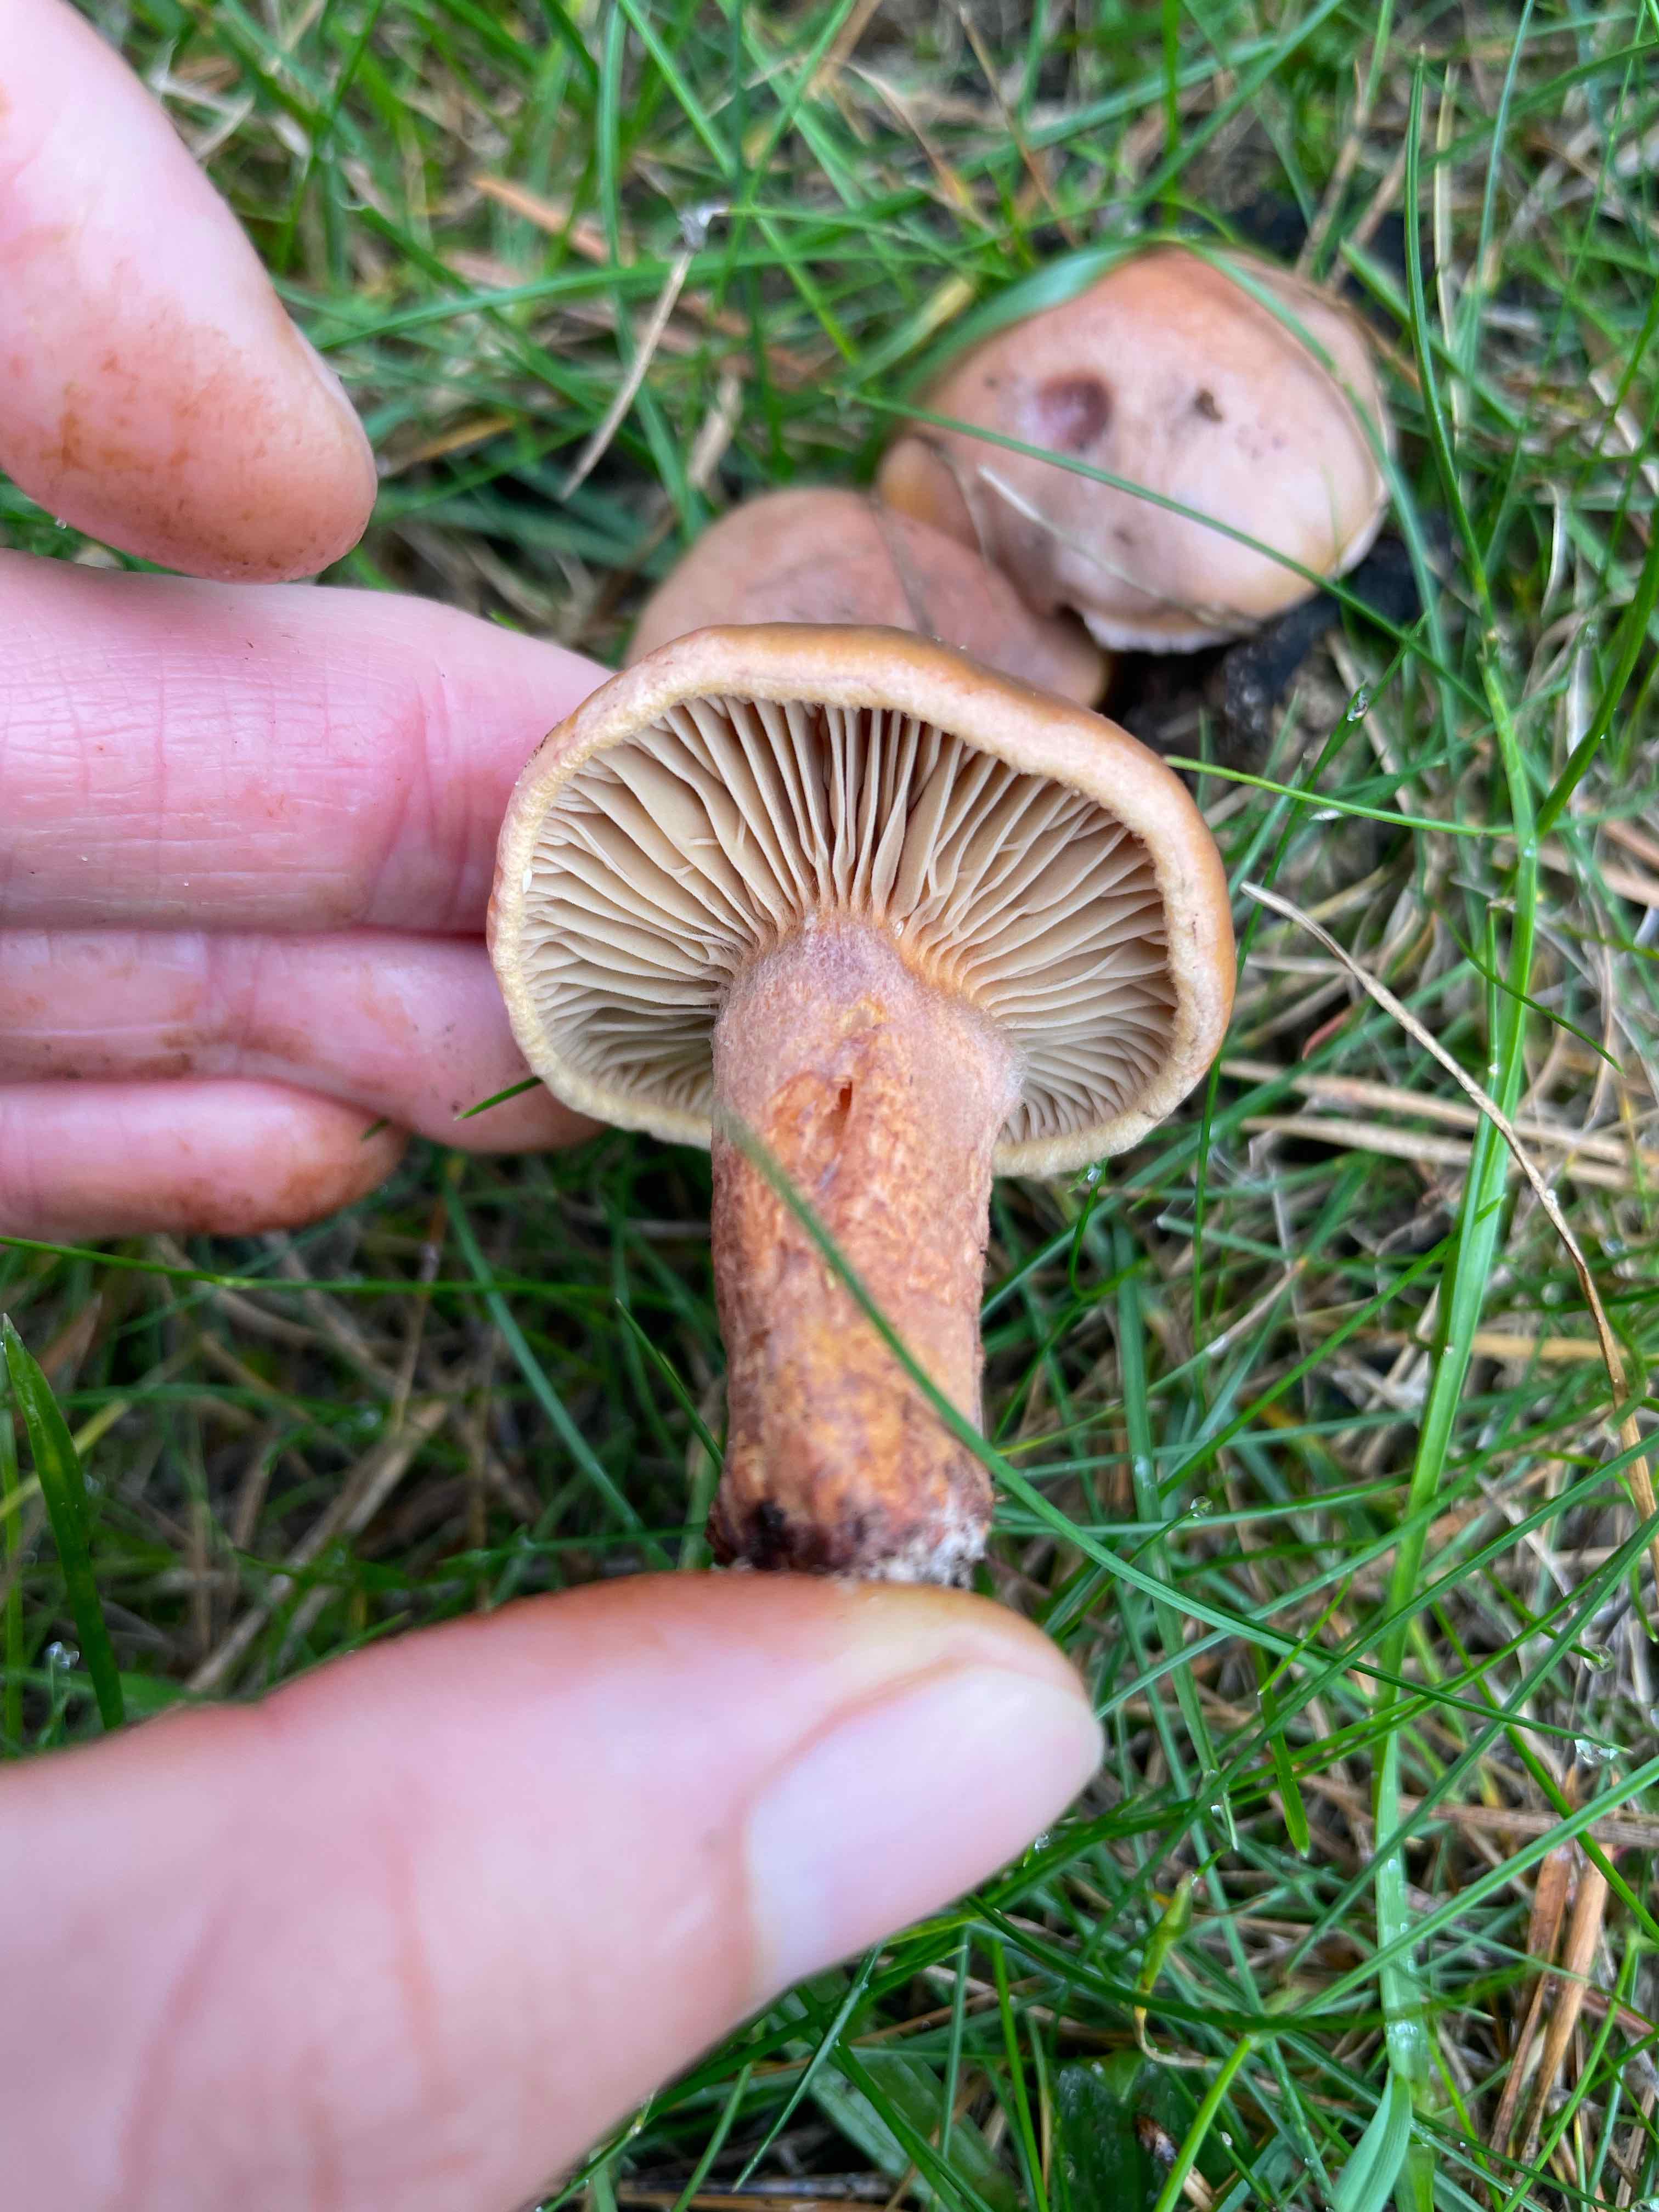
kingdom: Fungi
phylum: Basidiomycota
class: Agaricomycetes
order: Boletales
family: Gomphidiaceae
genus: Chroogomphus
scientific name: Chroogomphus rutilus
